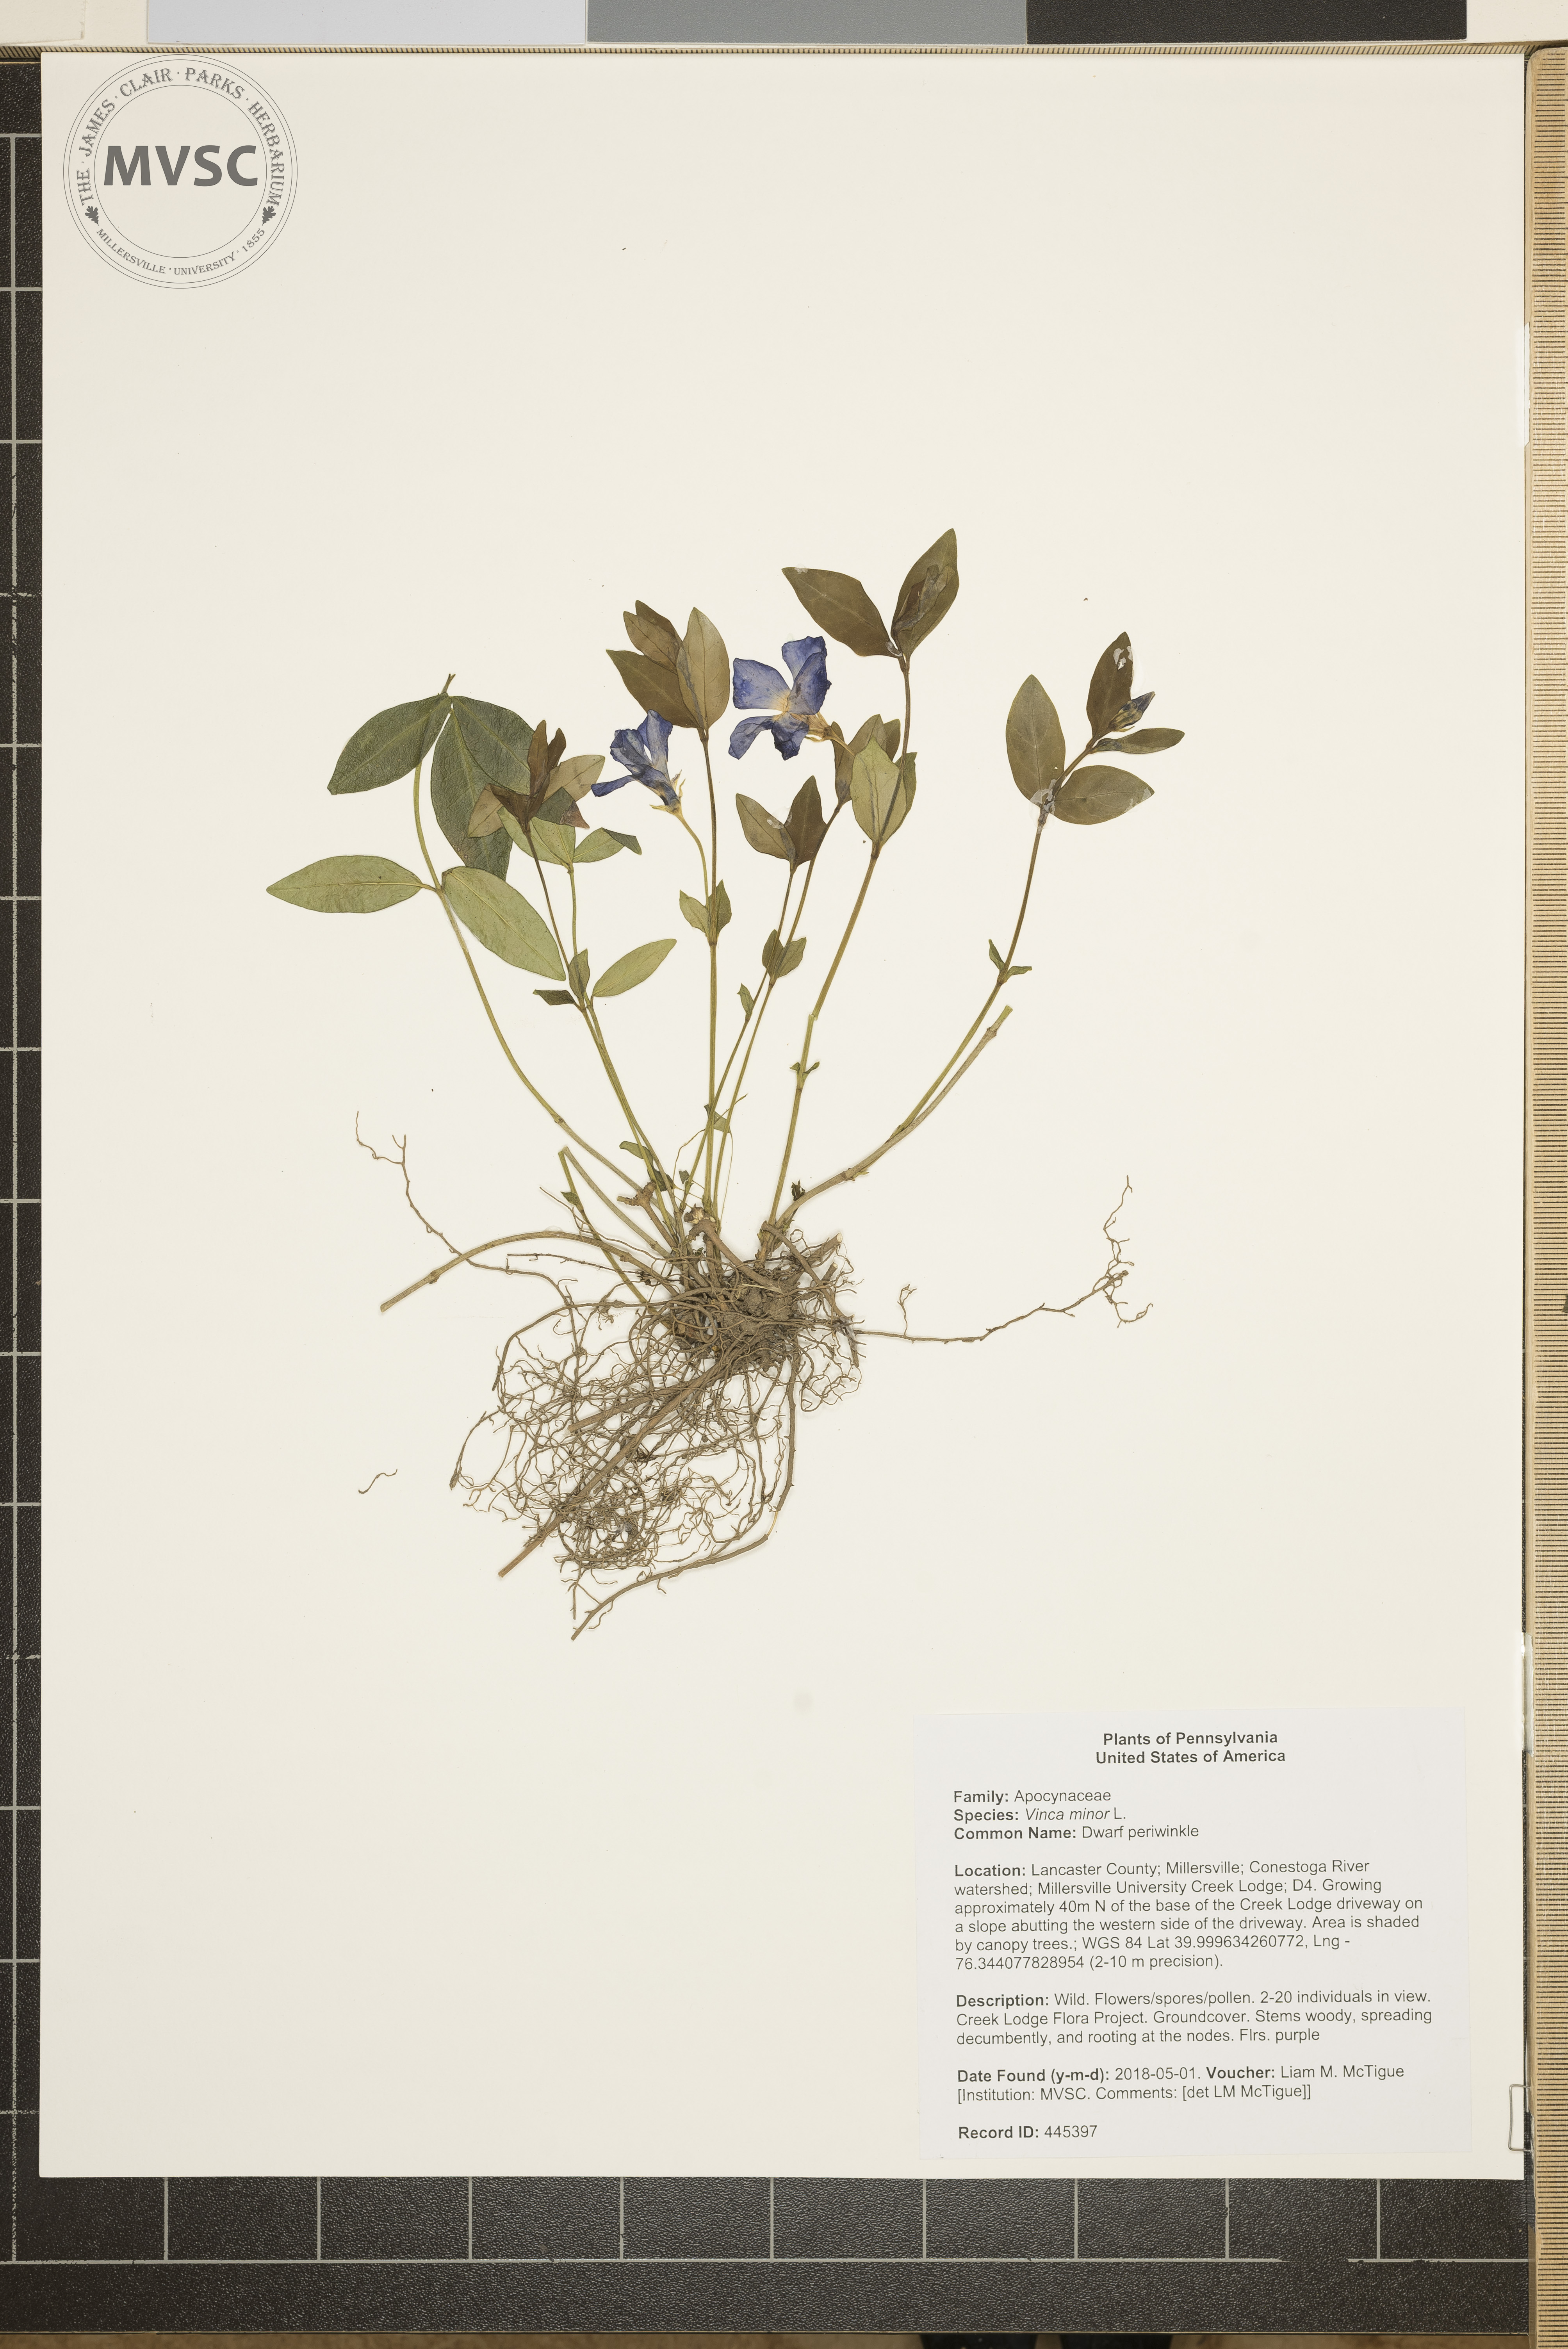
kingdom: Plantae
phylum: Tracheophyta
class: Magnoliopsida
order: Gentianales
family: Apocynaceae
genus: Vinca
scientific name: Vinca minor
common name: Dwarf periwinkle
